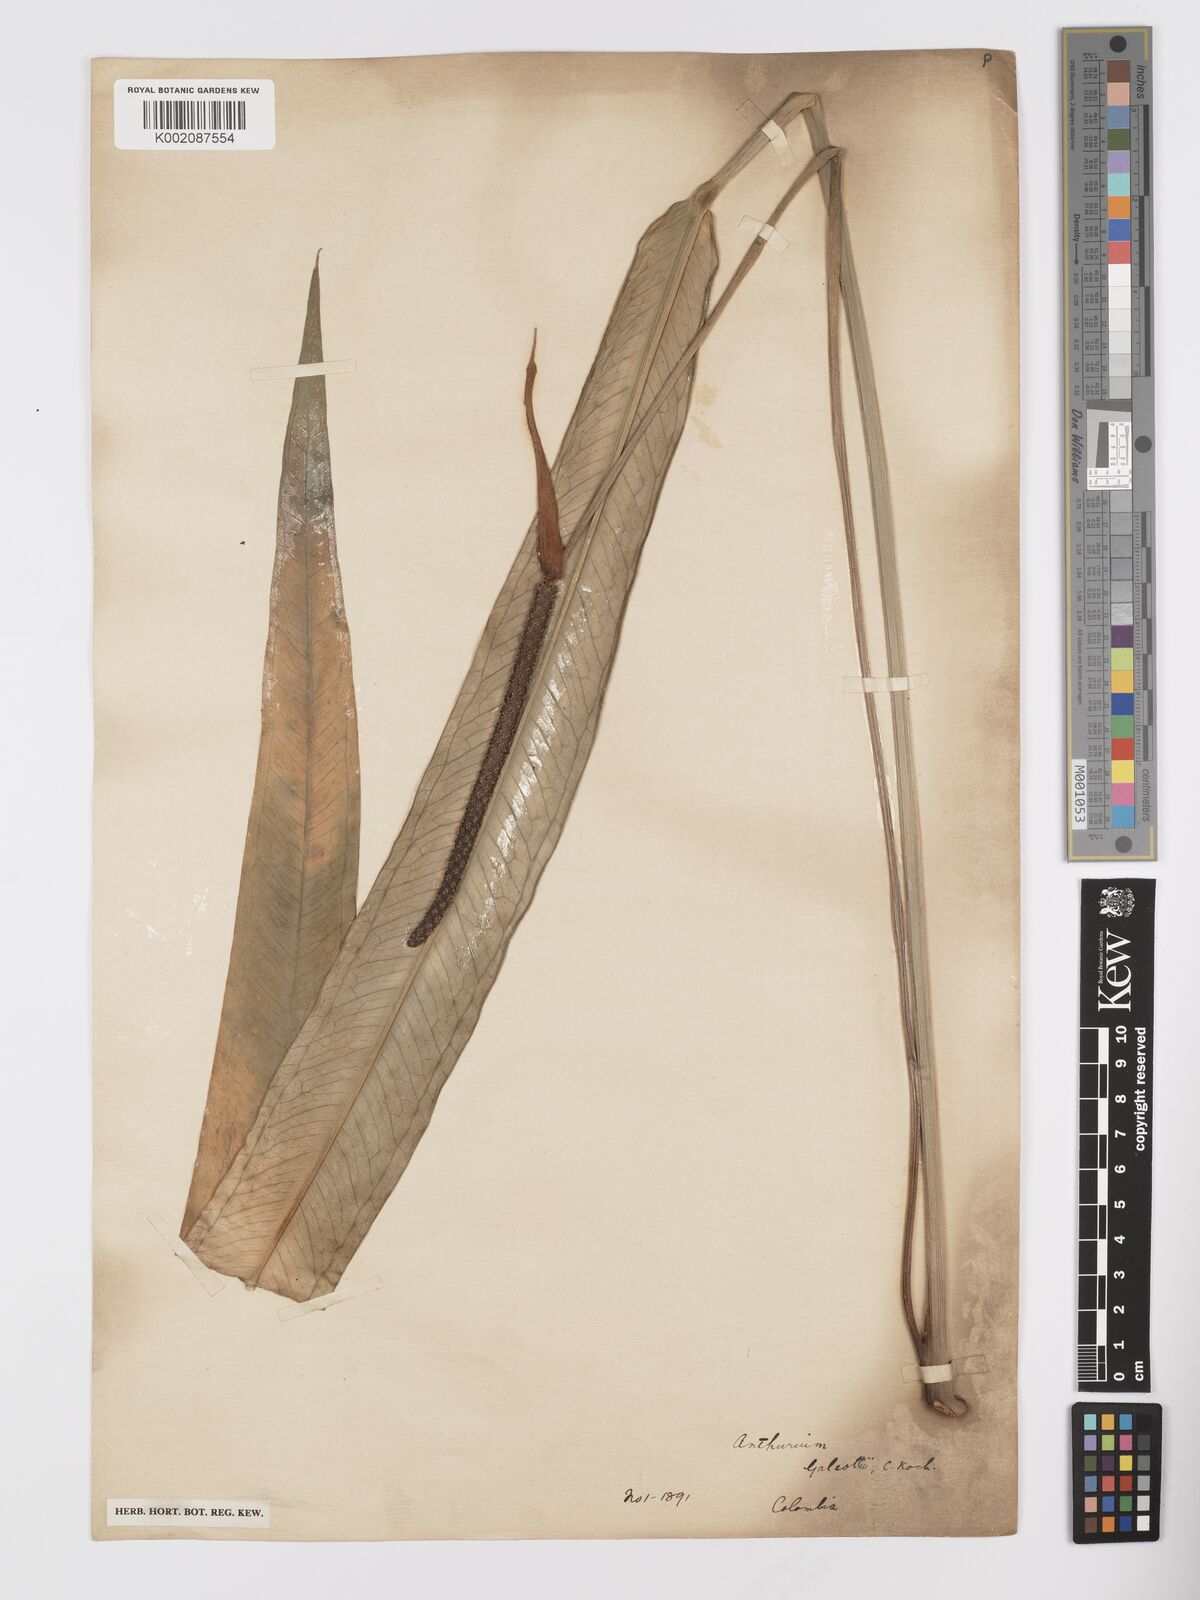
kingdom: Plantae
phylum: Tracheophyta
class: Liliopsida
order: Alismatales
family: Araceae
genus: Anthurium
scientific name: Anthurium galeottii
